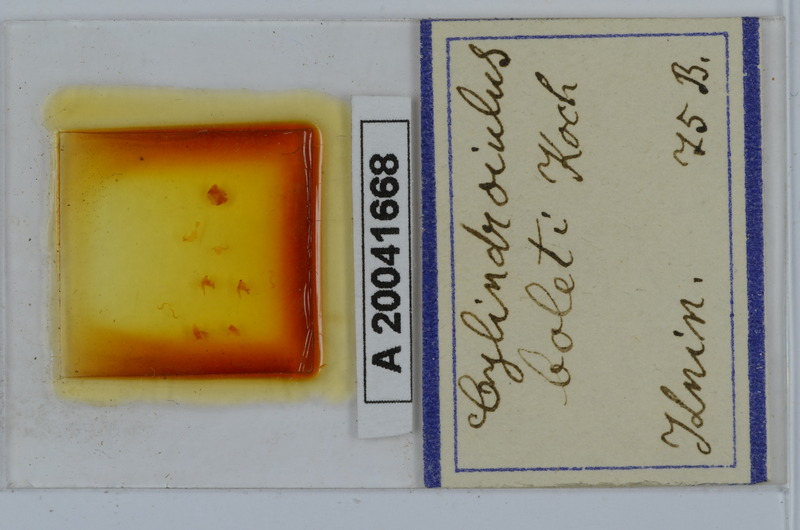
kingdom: Animalia
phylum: Arthropoda
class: Diplopoda
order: Julida
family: Julidae
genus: Cylindroiulus
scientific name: Cylindroiulus boleti
